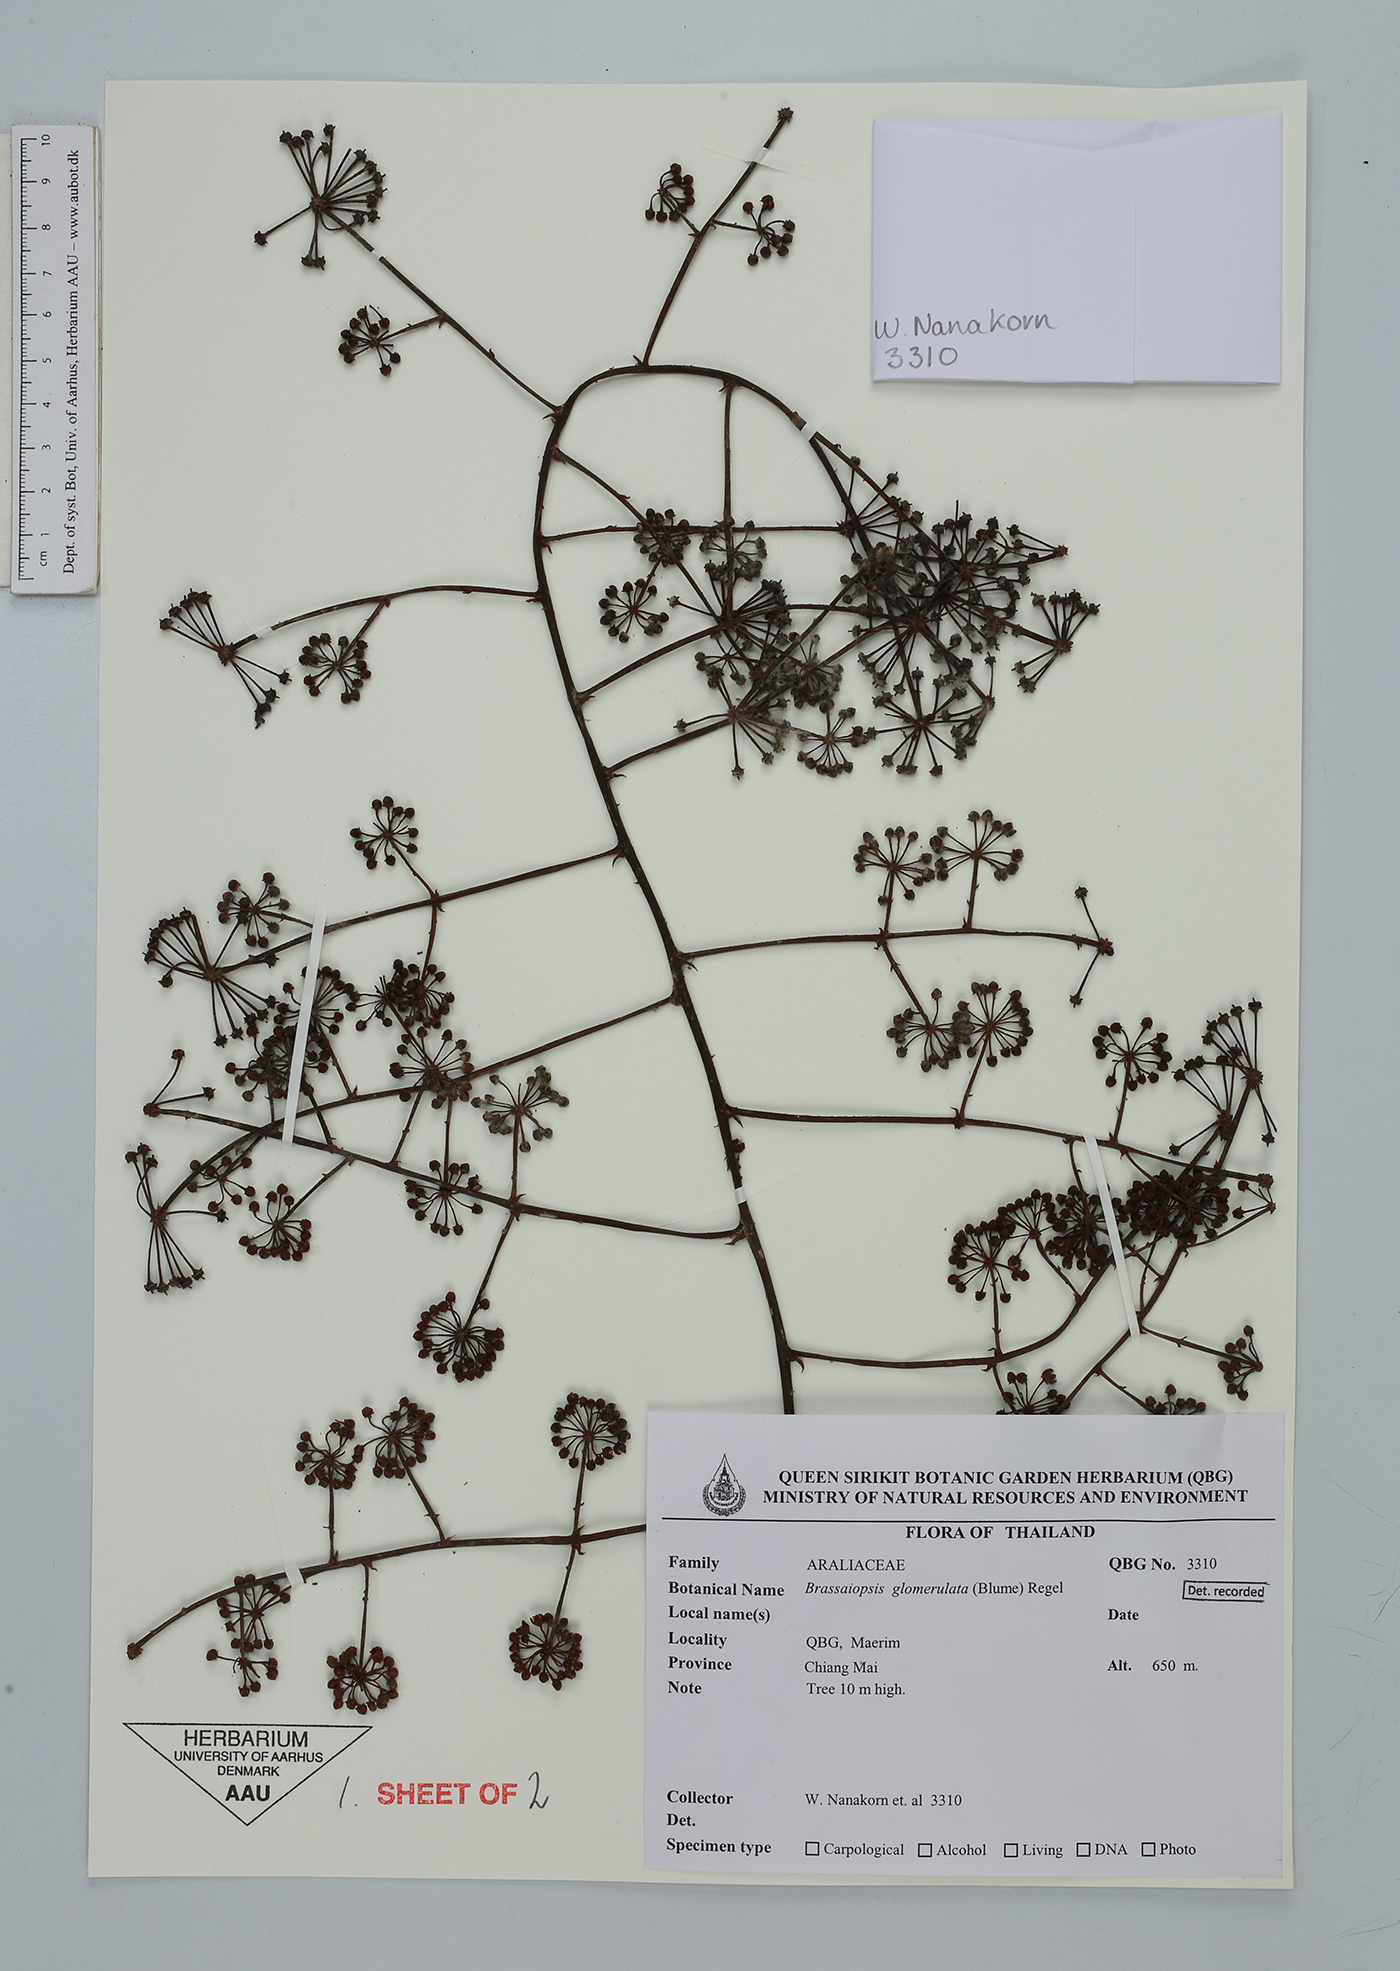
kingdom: Plantae
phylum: Tracheophyta
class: Magnoliopsida
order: Apiales
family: Araliaceae
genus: Brassaiopsis
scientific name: Brassaiopsis glomerulata
